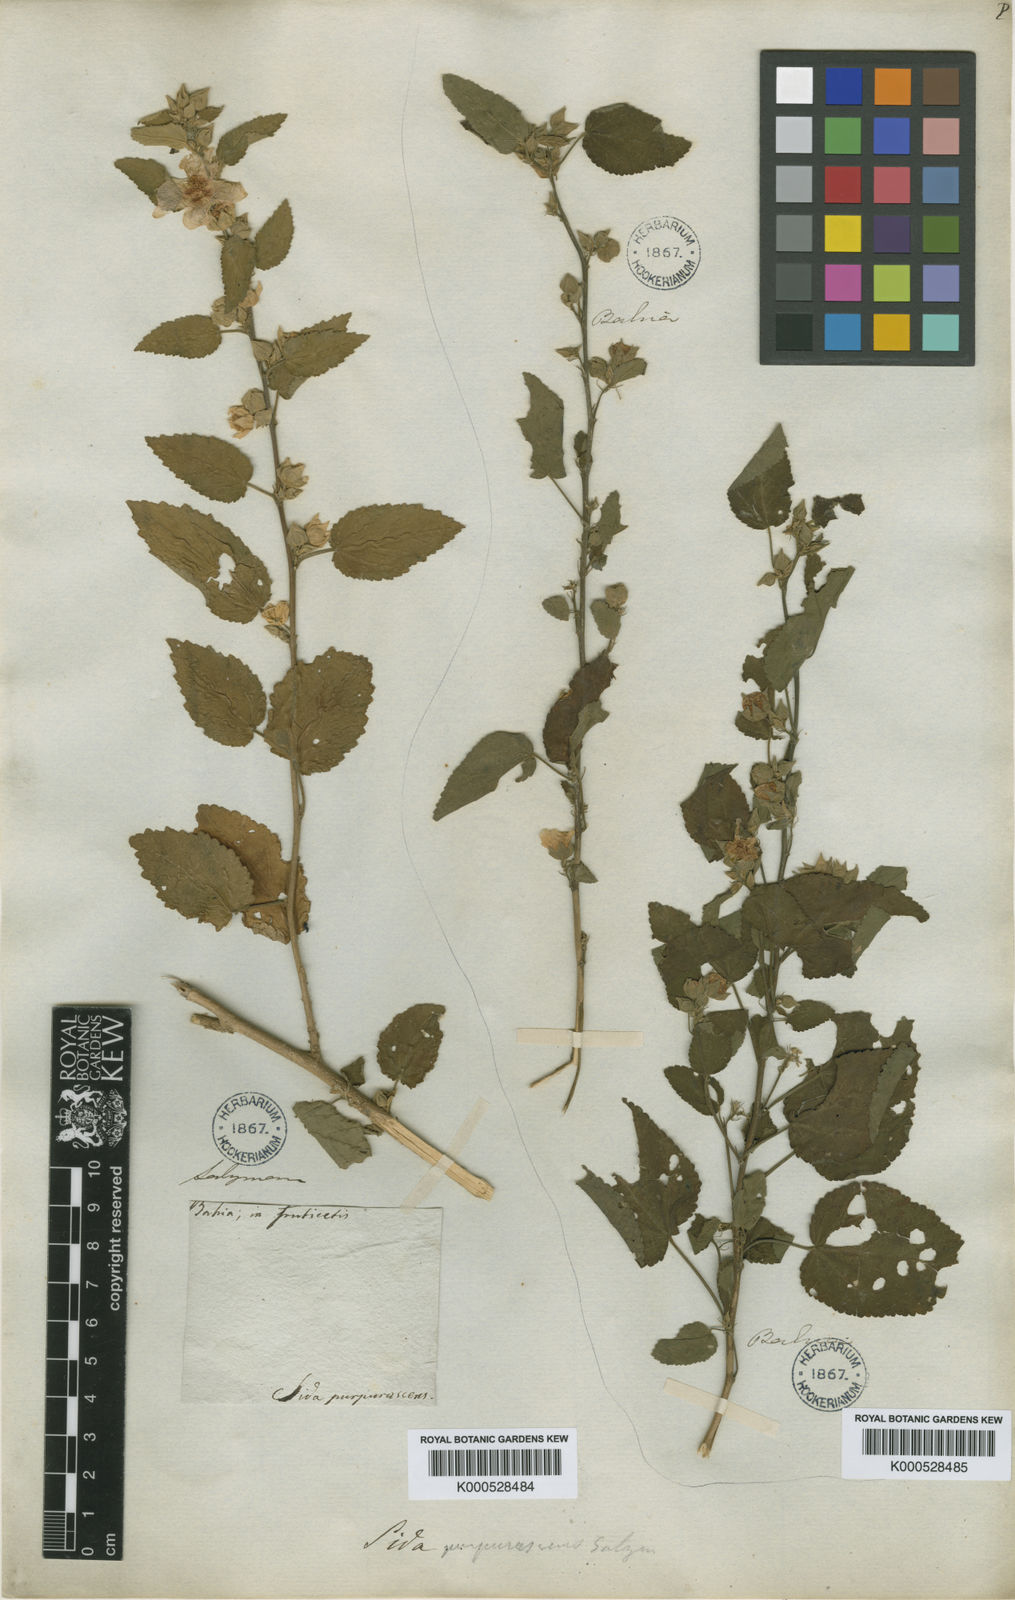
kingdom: Plantae
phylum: Tracheophyta
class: Magnoliopsida
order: Malvales
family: Malvaceae
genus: Sida
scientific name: Sida ulei
